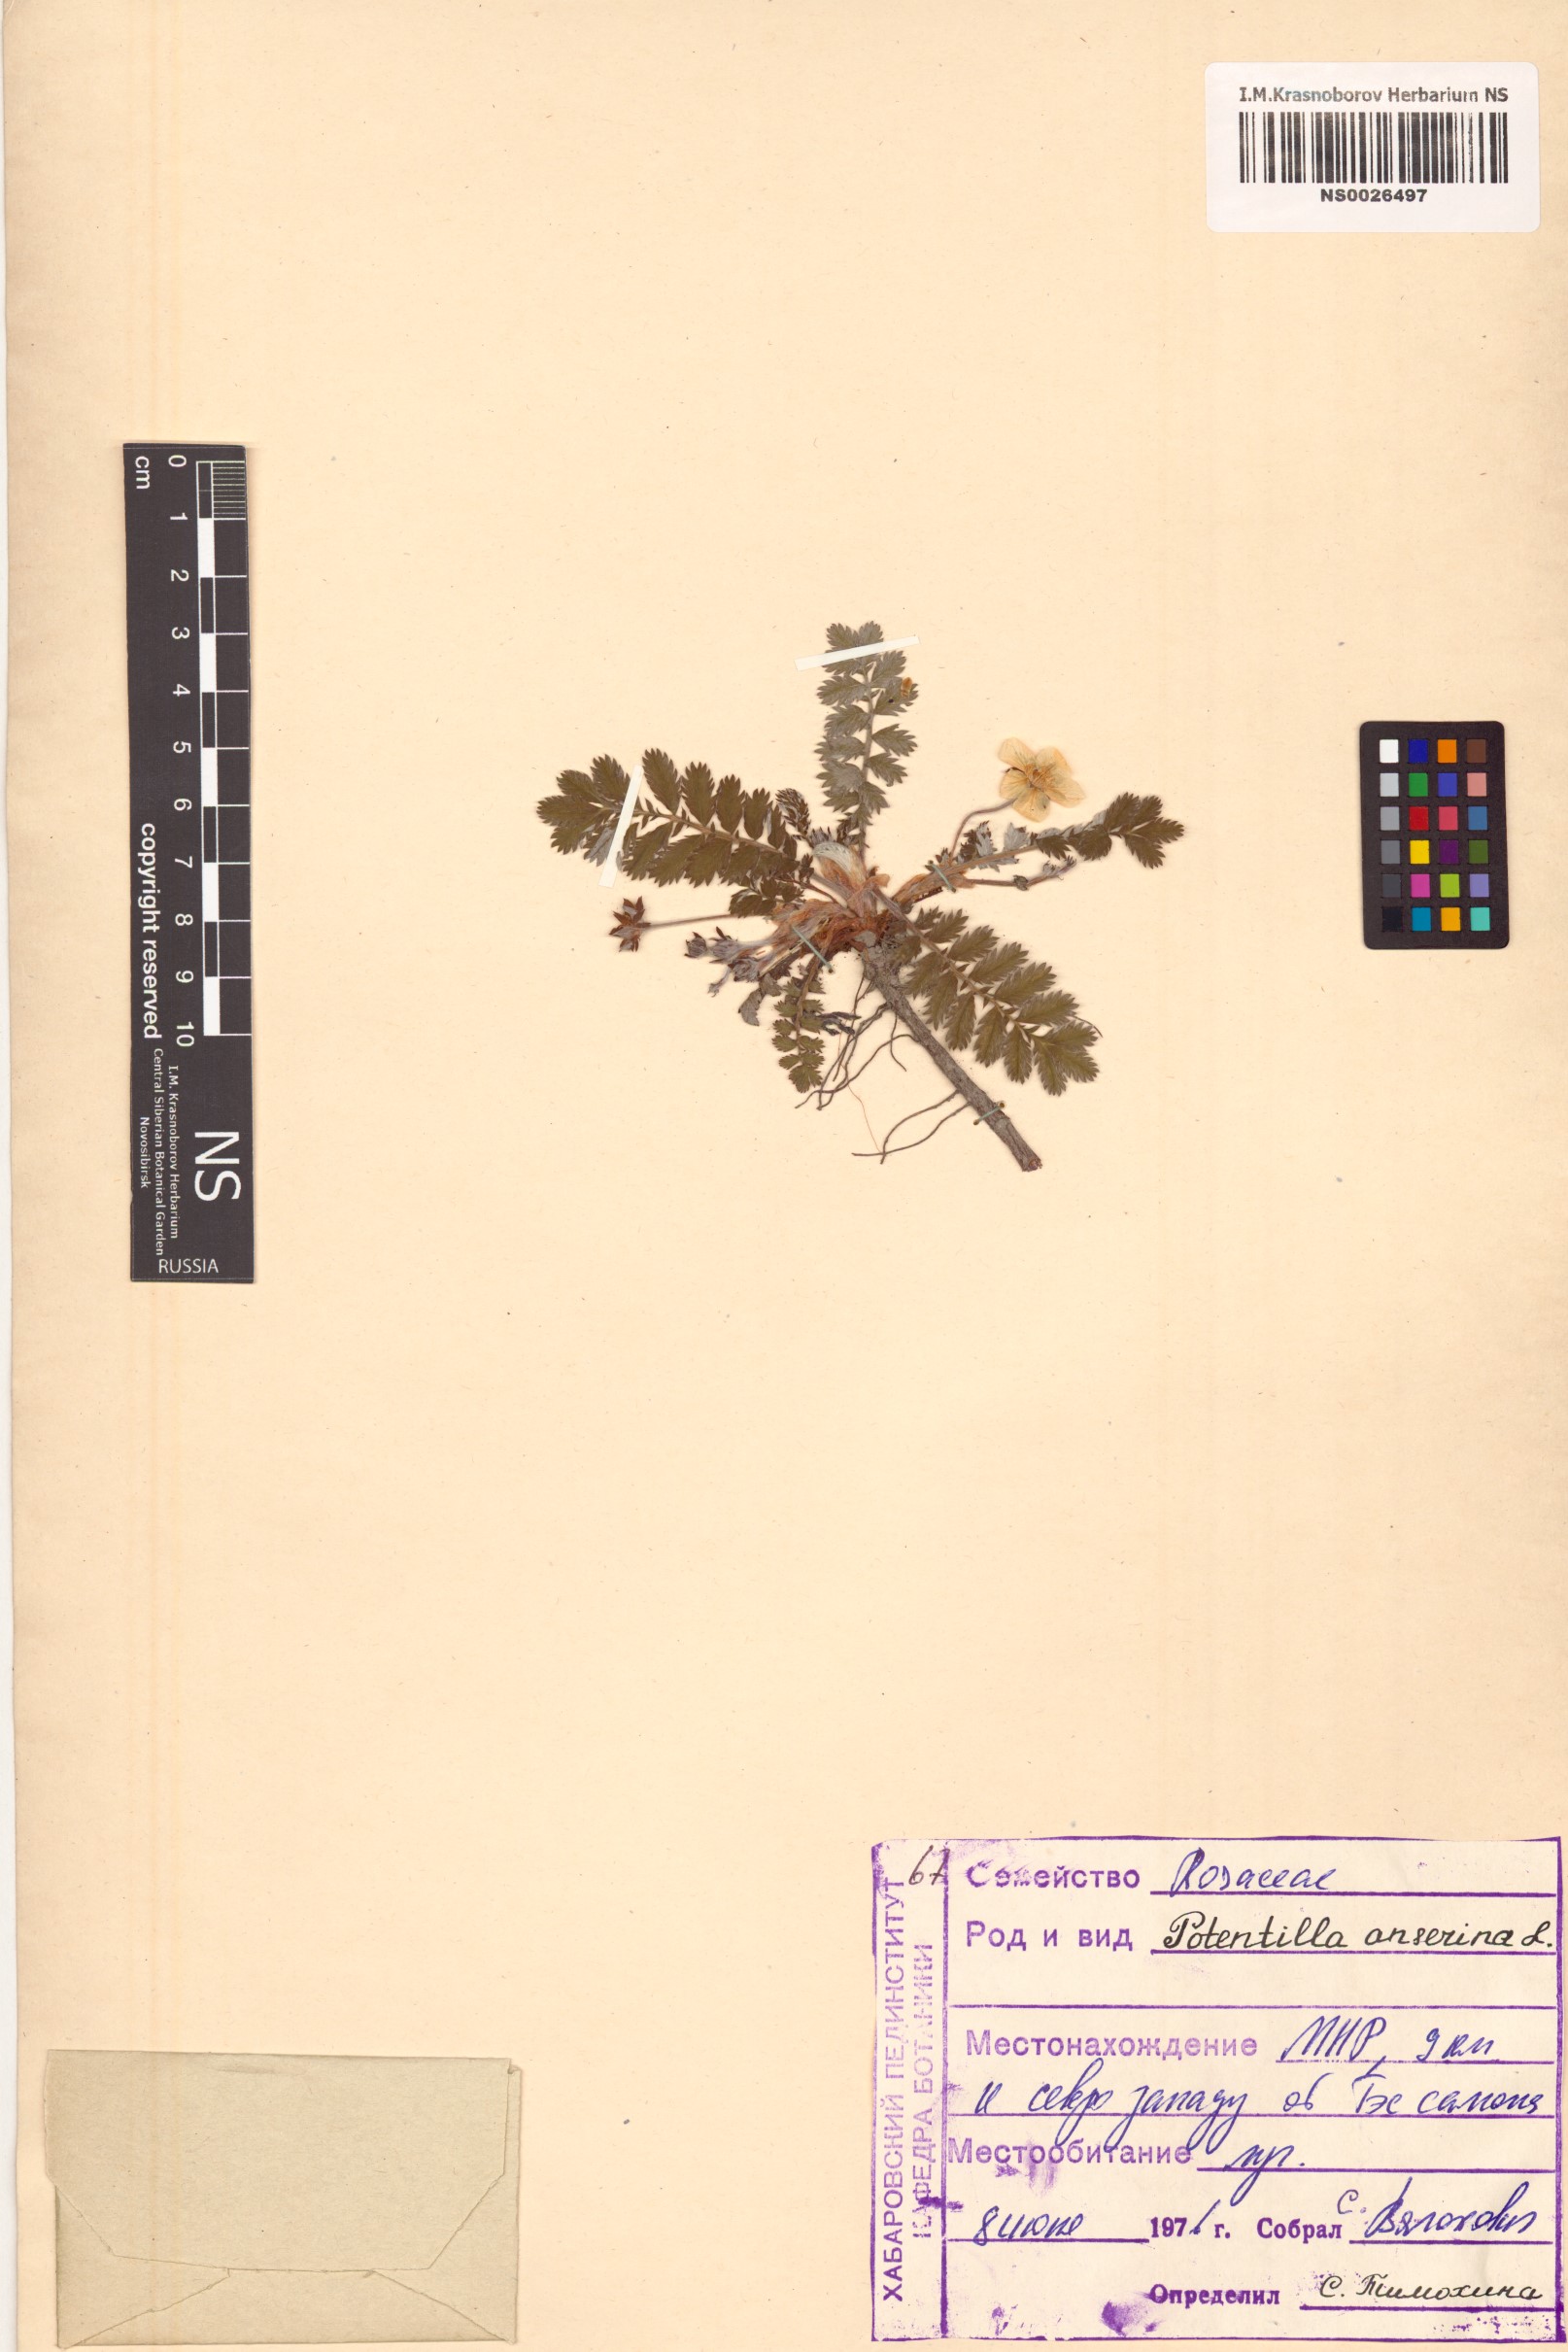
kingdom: Plantae
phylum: Tracheophyta
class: Magnoliopsida
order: Rosales
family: Rosaceae
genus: Argentina
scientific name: Argentina anserina
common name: Common silverweed
